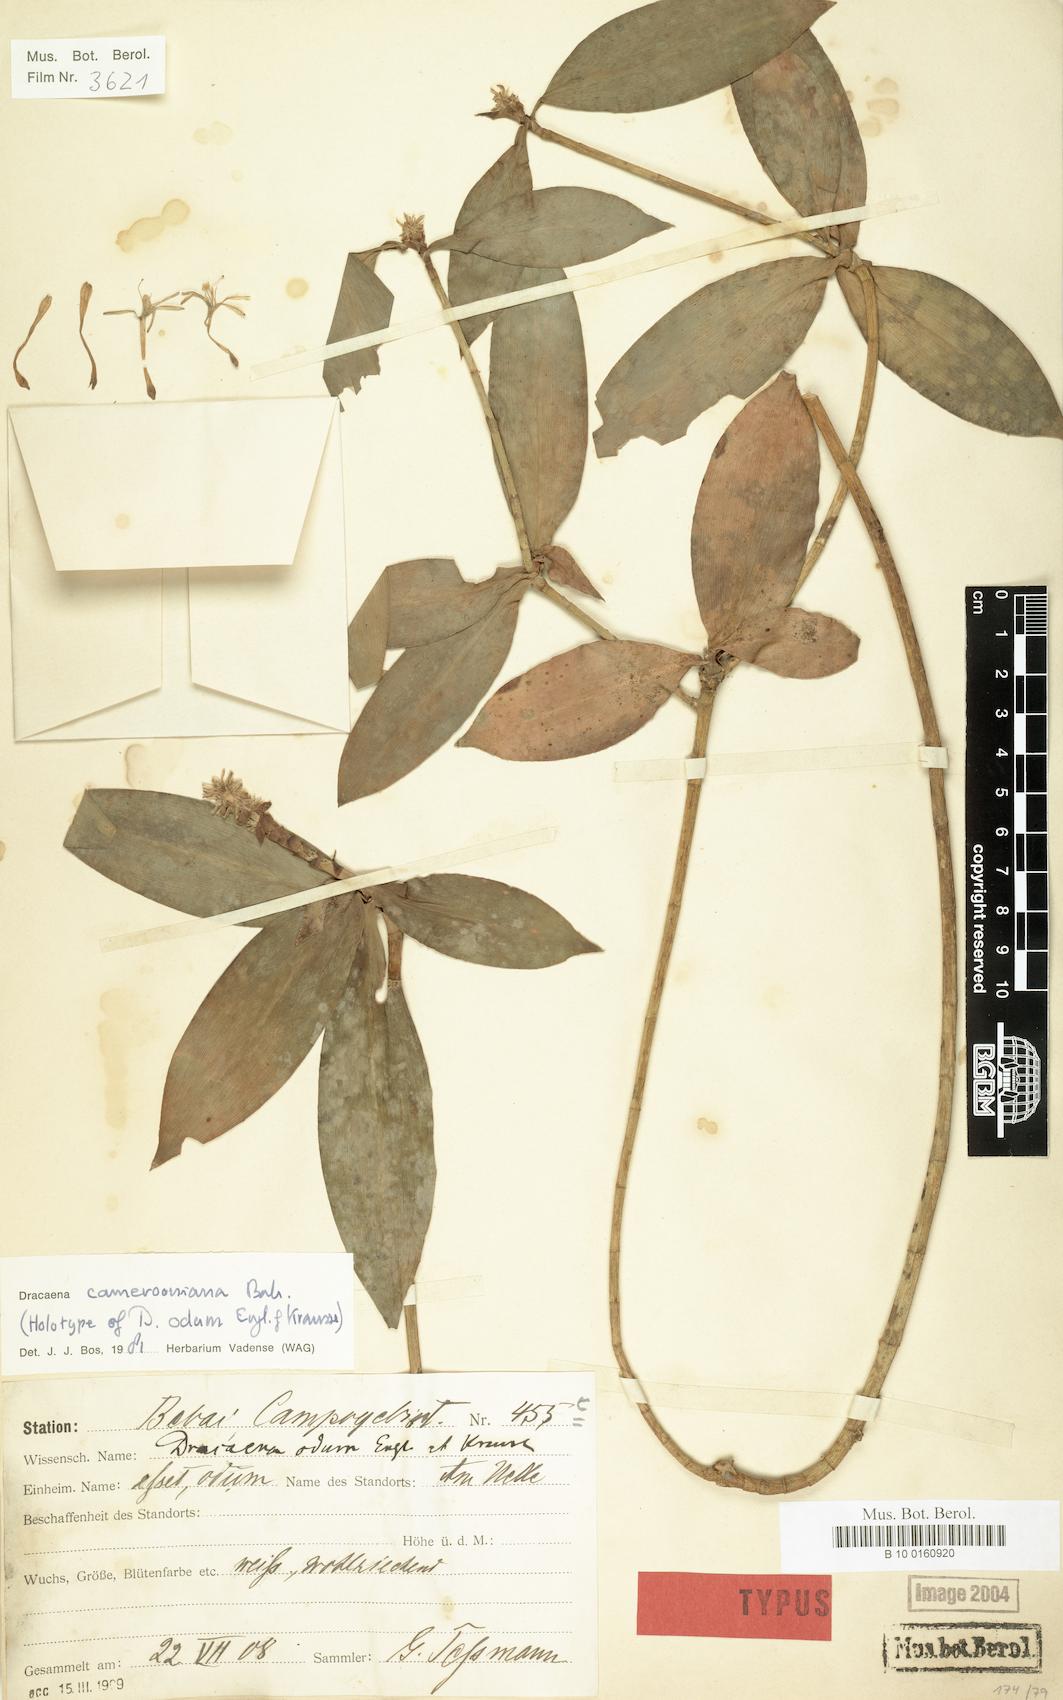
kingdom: Plantae
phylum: Tracheophyta
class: Liliopsida
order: Asparagales
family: Asparagaceae
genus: Dracaena
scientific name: Dracaena camerooniana
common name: Dragon tree
